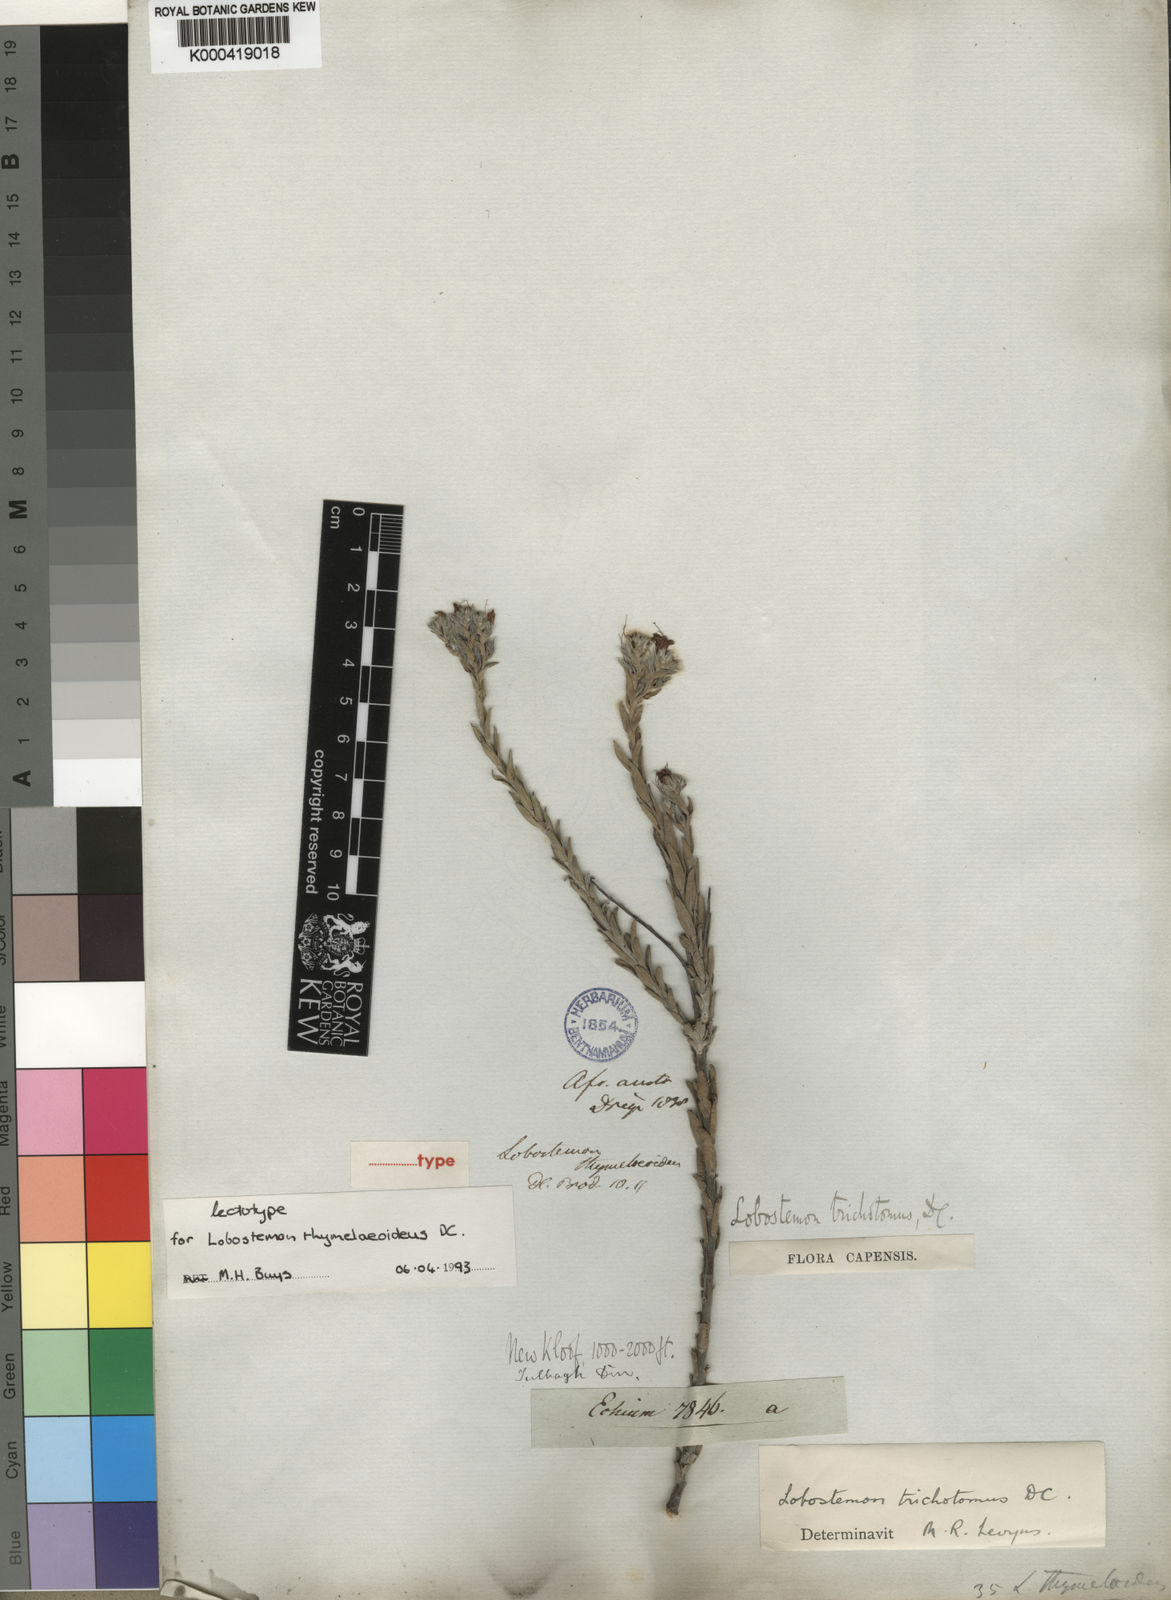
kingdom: Plantae
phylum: Tracheophyta
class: Magnoliopsida
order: Boraginales
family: Boraginaceae
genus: Lobostemon
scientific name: Lobostemon trichotomus
